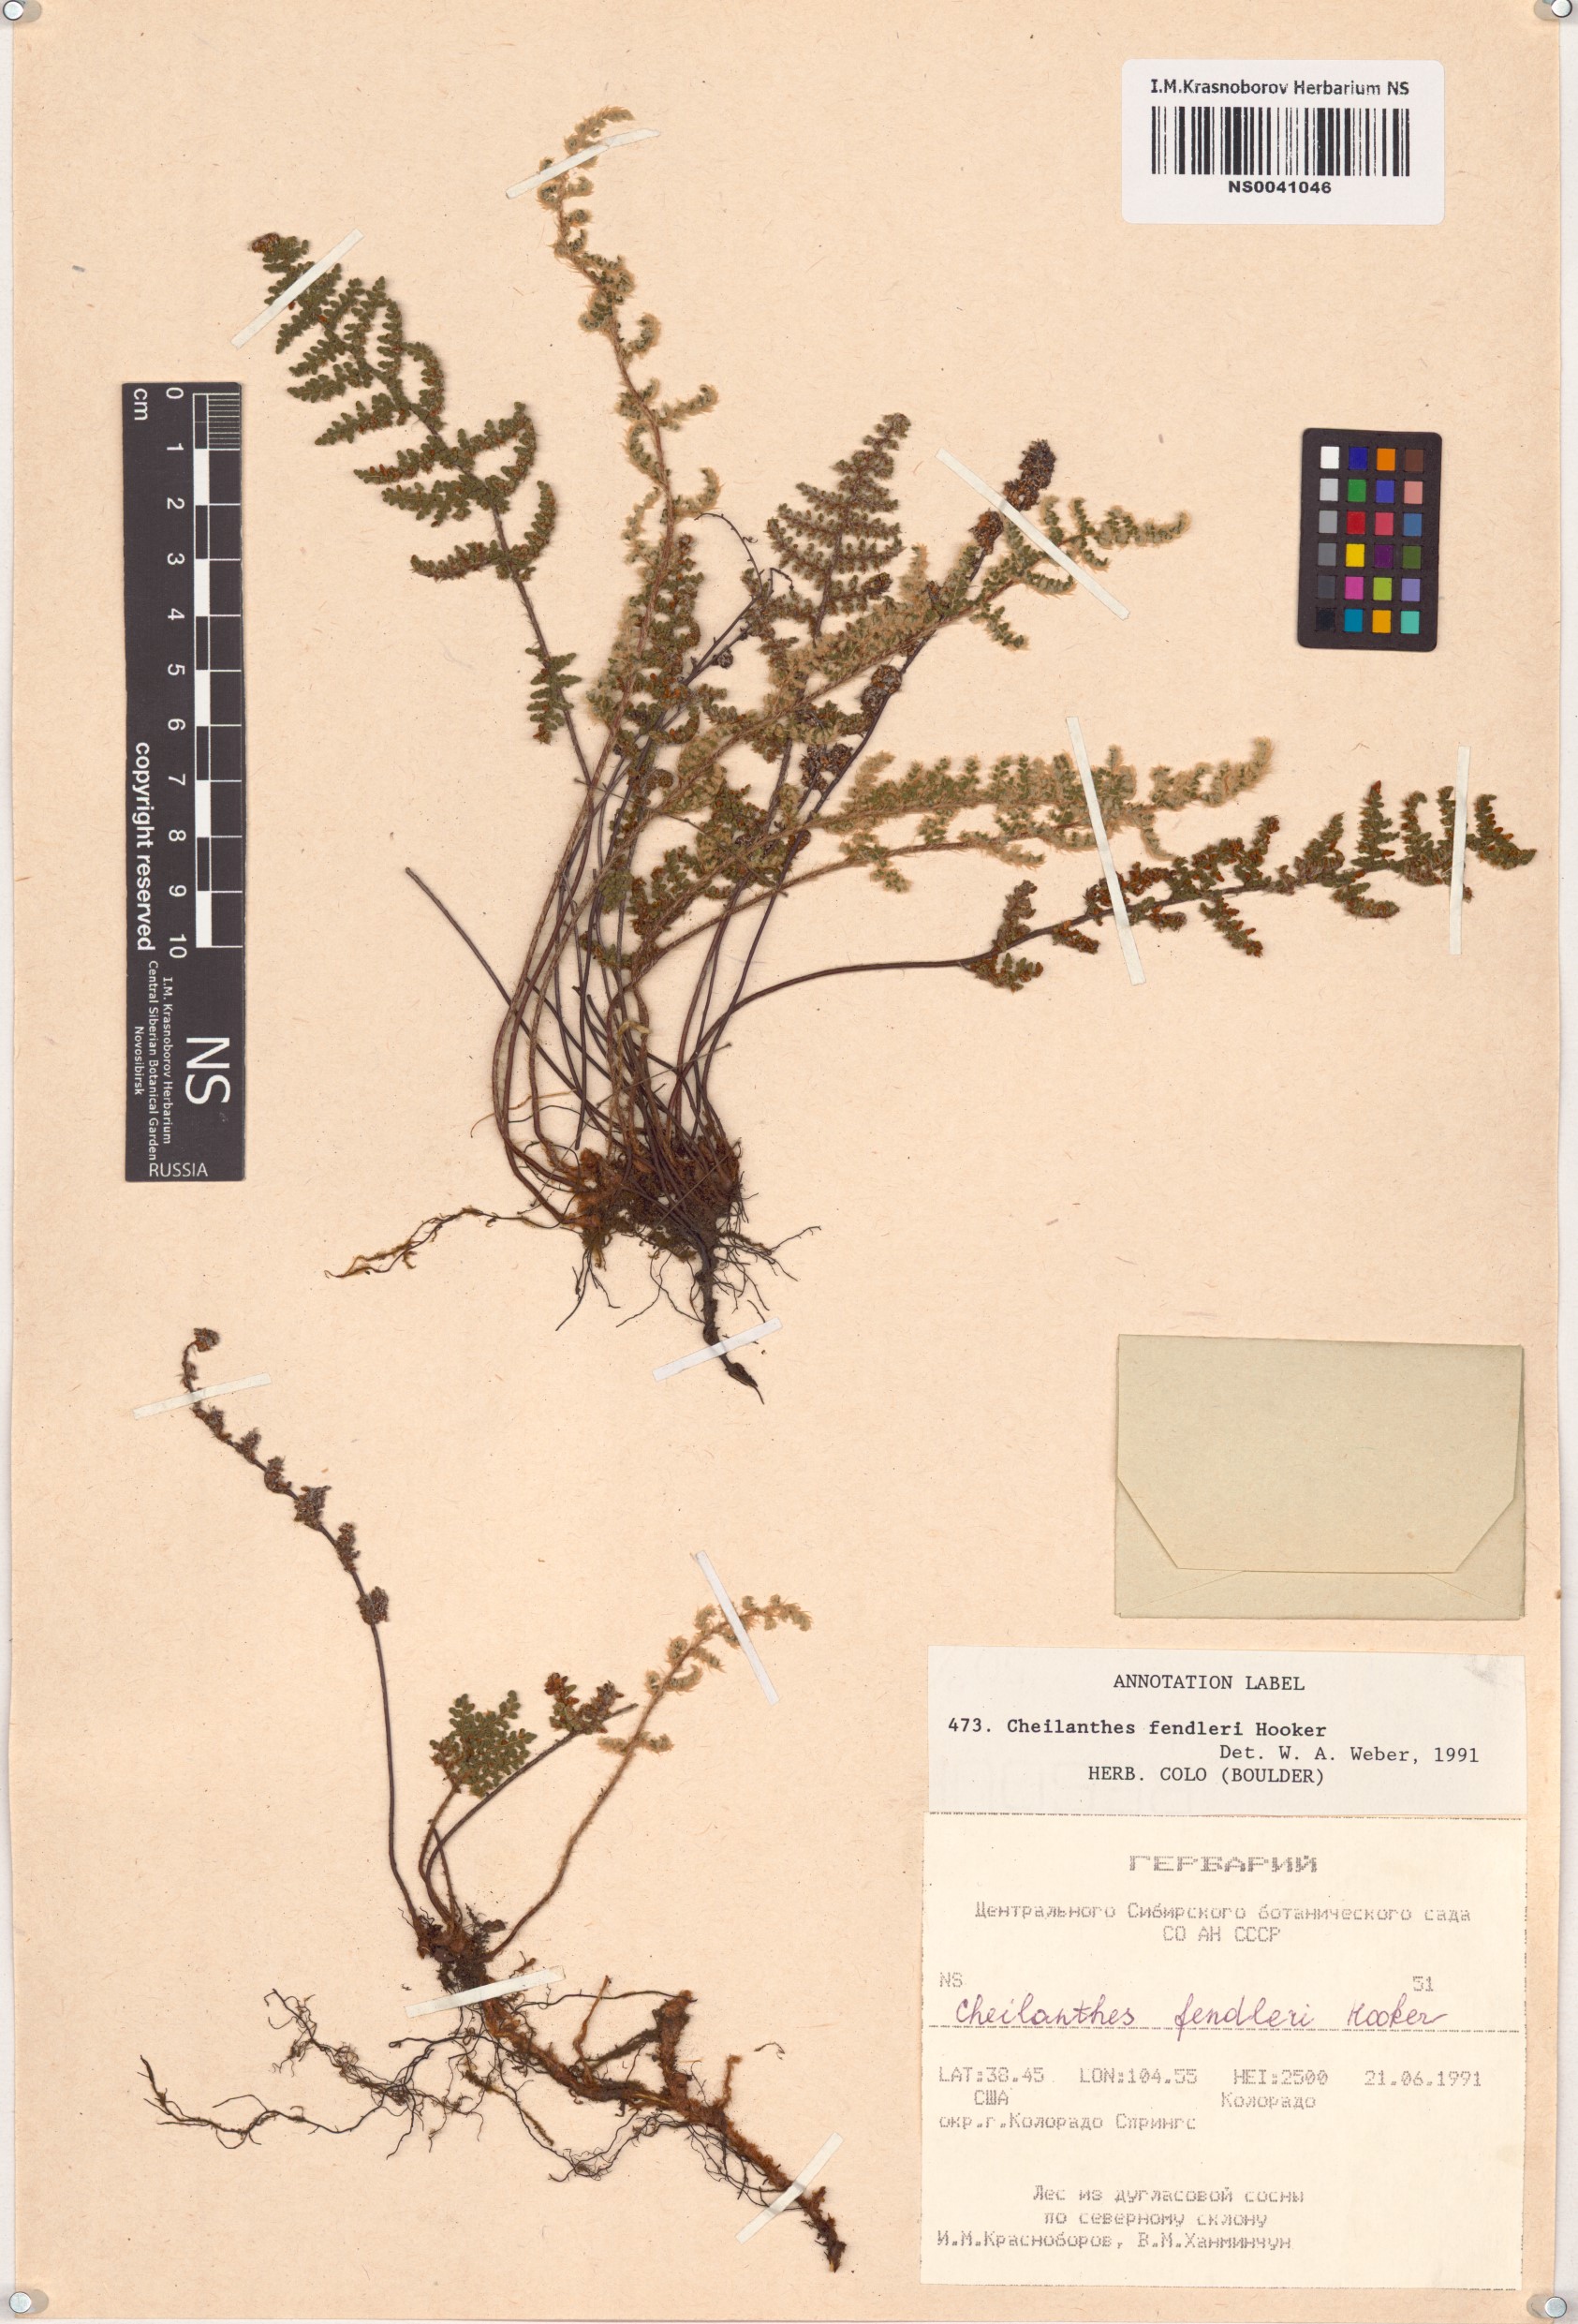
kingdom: Plantae
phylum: Tracheophyta
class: Polypodiopsida
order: Polypodiales
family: Pteridaceae
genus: Myriopteris
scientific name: Myriopteris fendleri
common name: Fendler's lip fern
